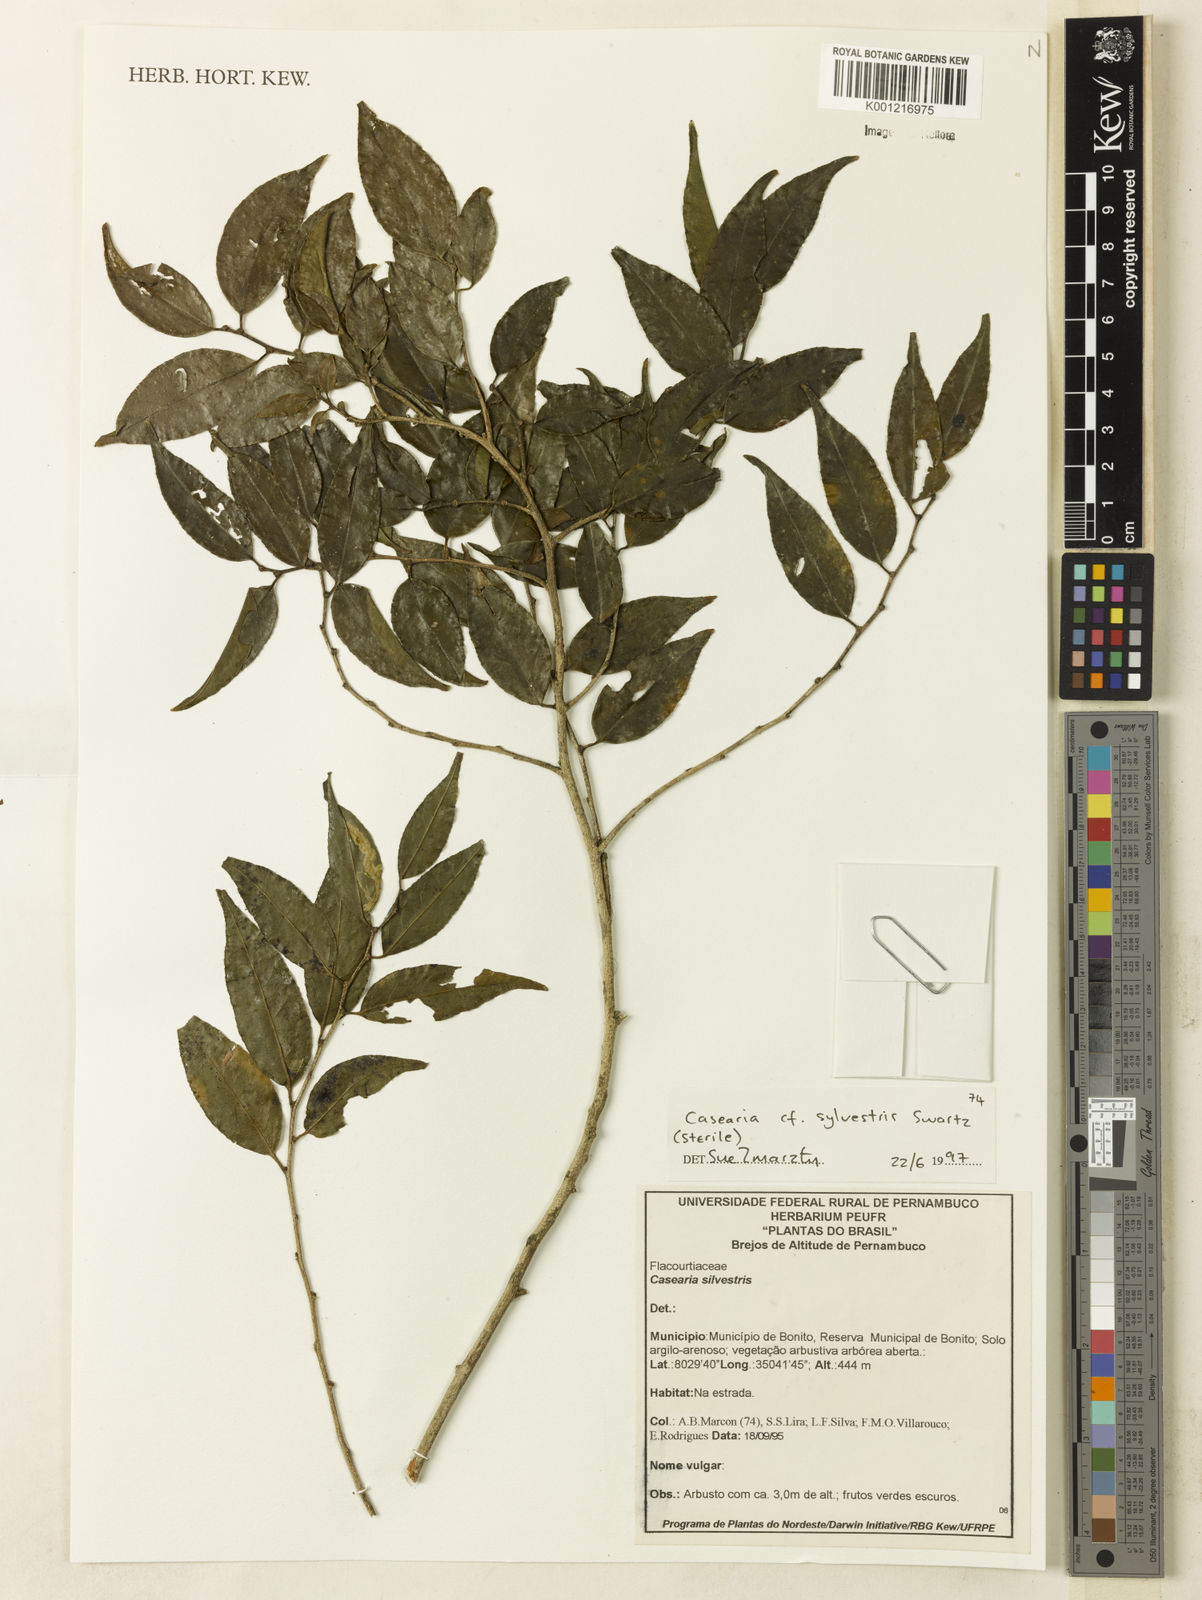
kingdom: Plantae
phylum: Tracheophyta
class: Magnoliopsida
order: Malpighiales
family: Salicaceae
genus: Casearia
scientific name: Casearia sylvestris
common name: Wild sage
